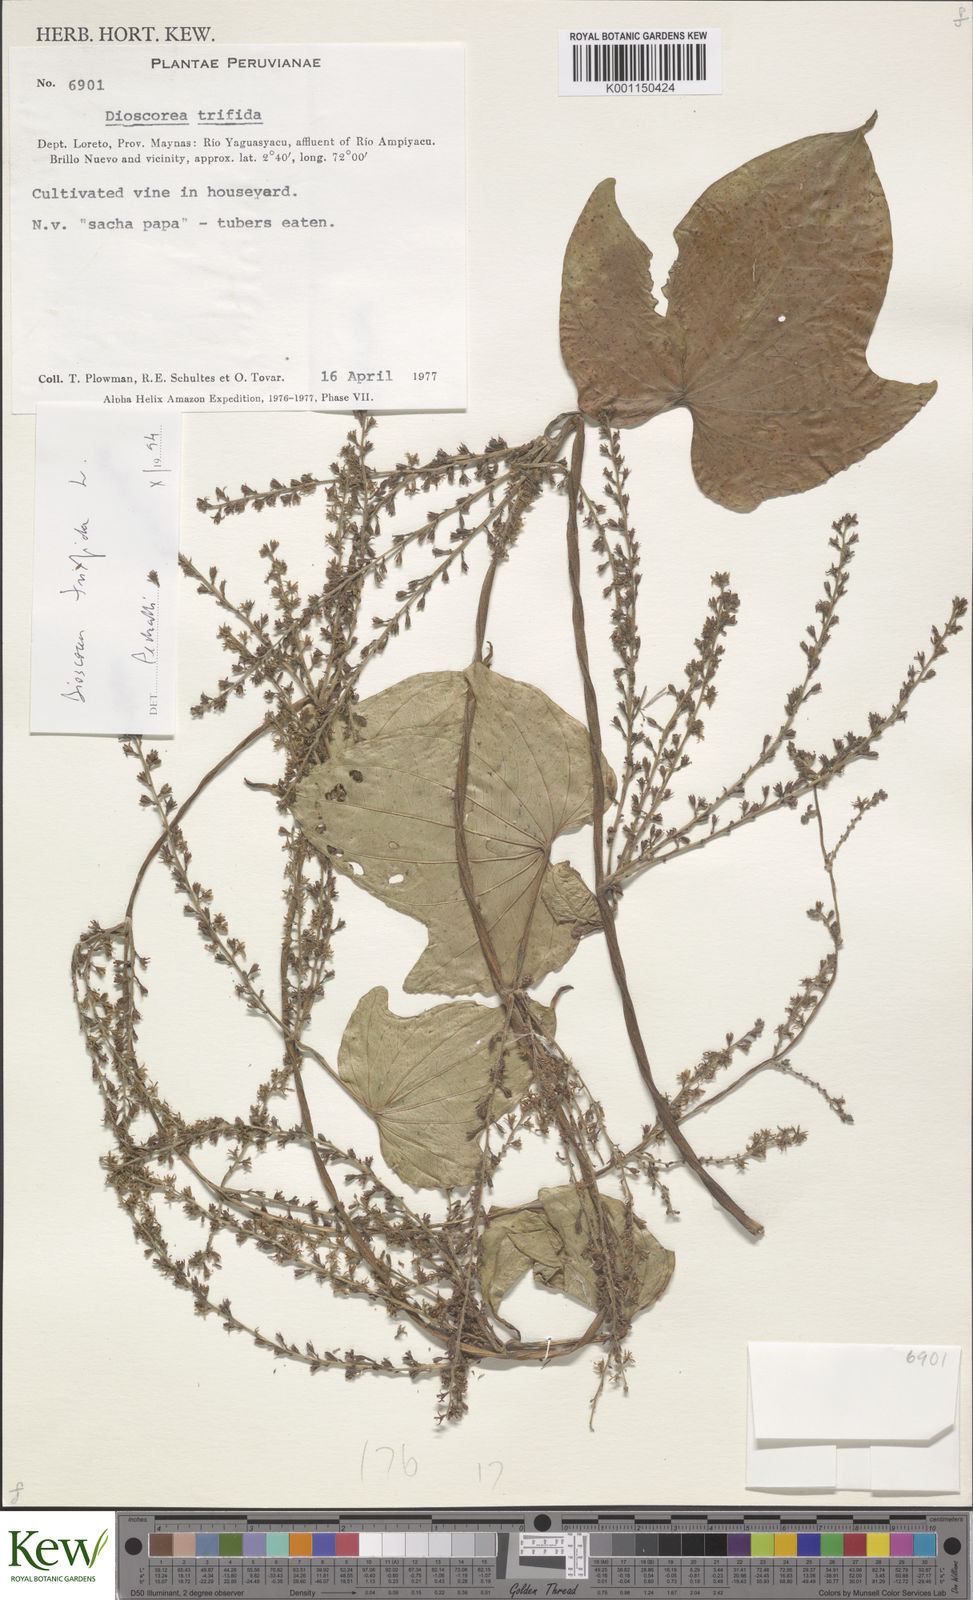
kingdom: Plantae
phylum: Tracheophyta
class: Liliopsida
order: Dioscoreales
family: Dioscoreaceae
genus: Dioscorea
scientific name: Dioscorea trifida
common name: Cush-cush
